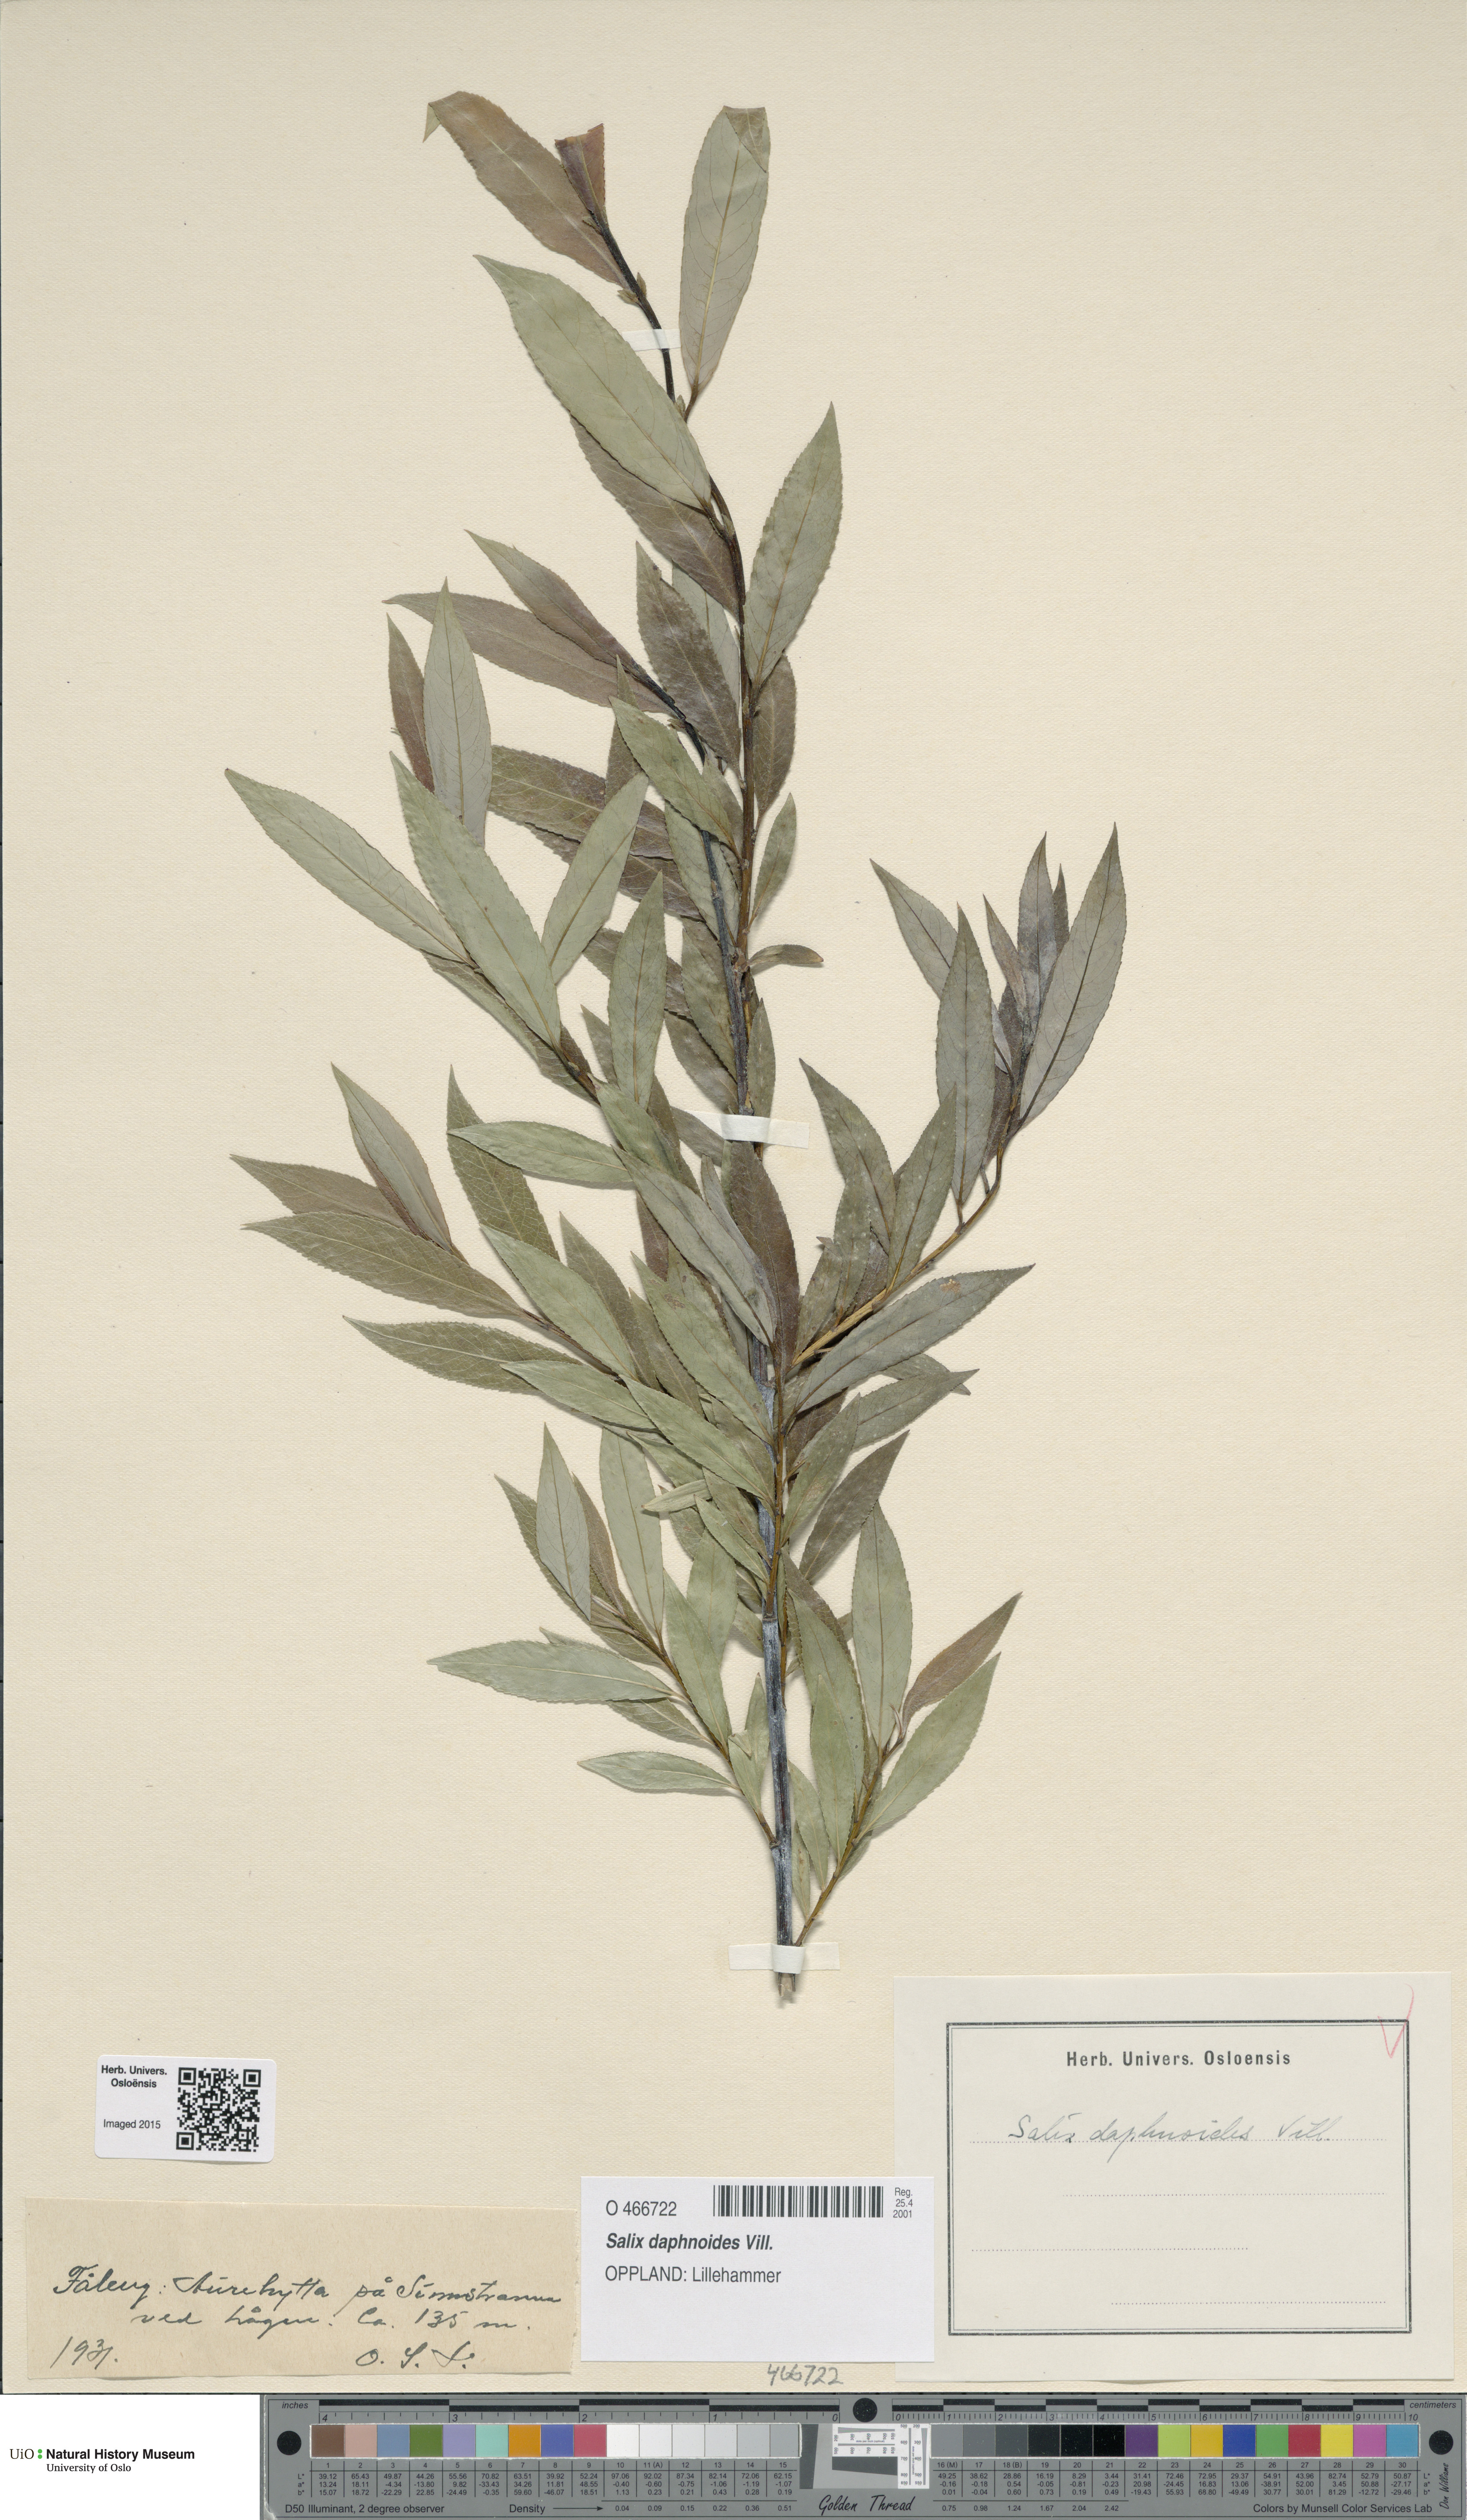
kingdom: Plantae
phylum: Tracheophyta
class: Magnoliopsida
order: Malpighiales
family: Salicaceae
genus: Salix
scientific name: Salix daphnoides
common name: European violet-willow
